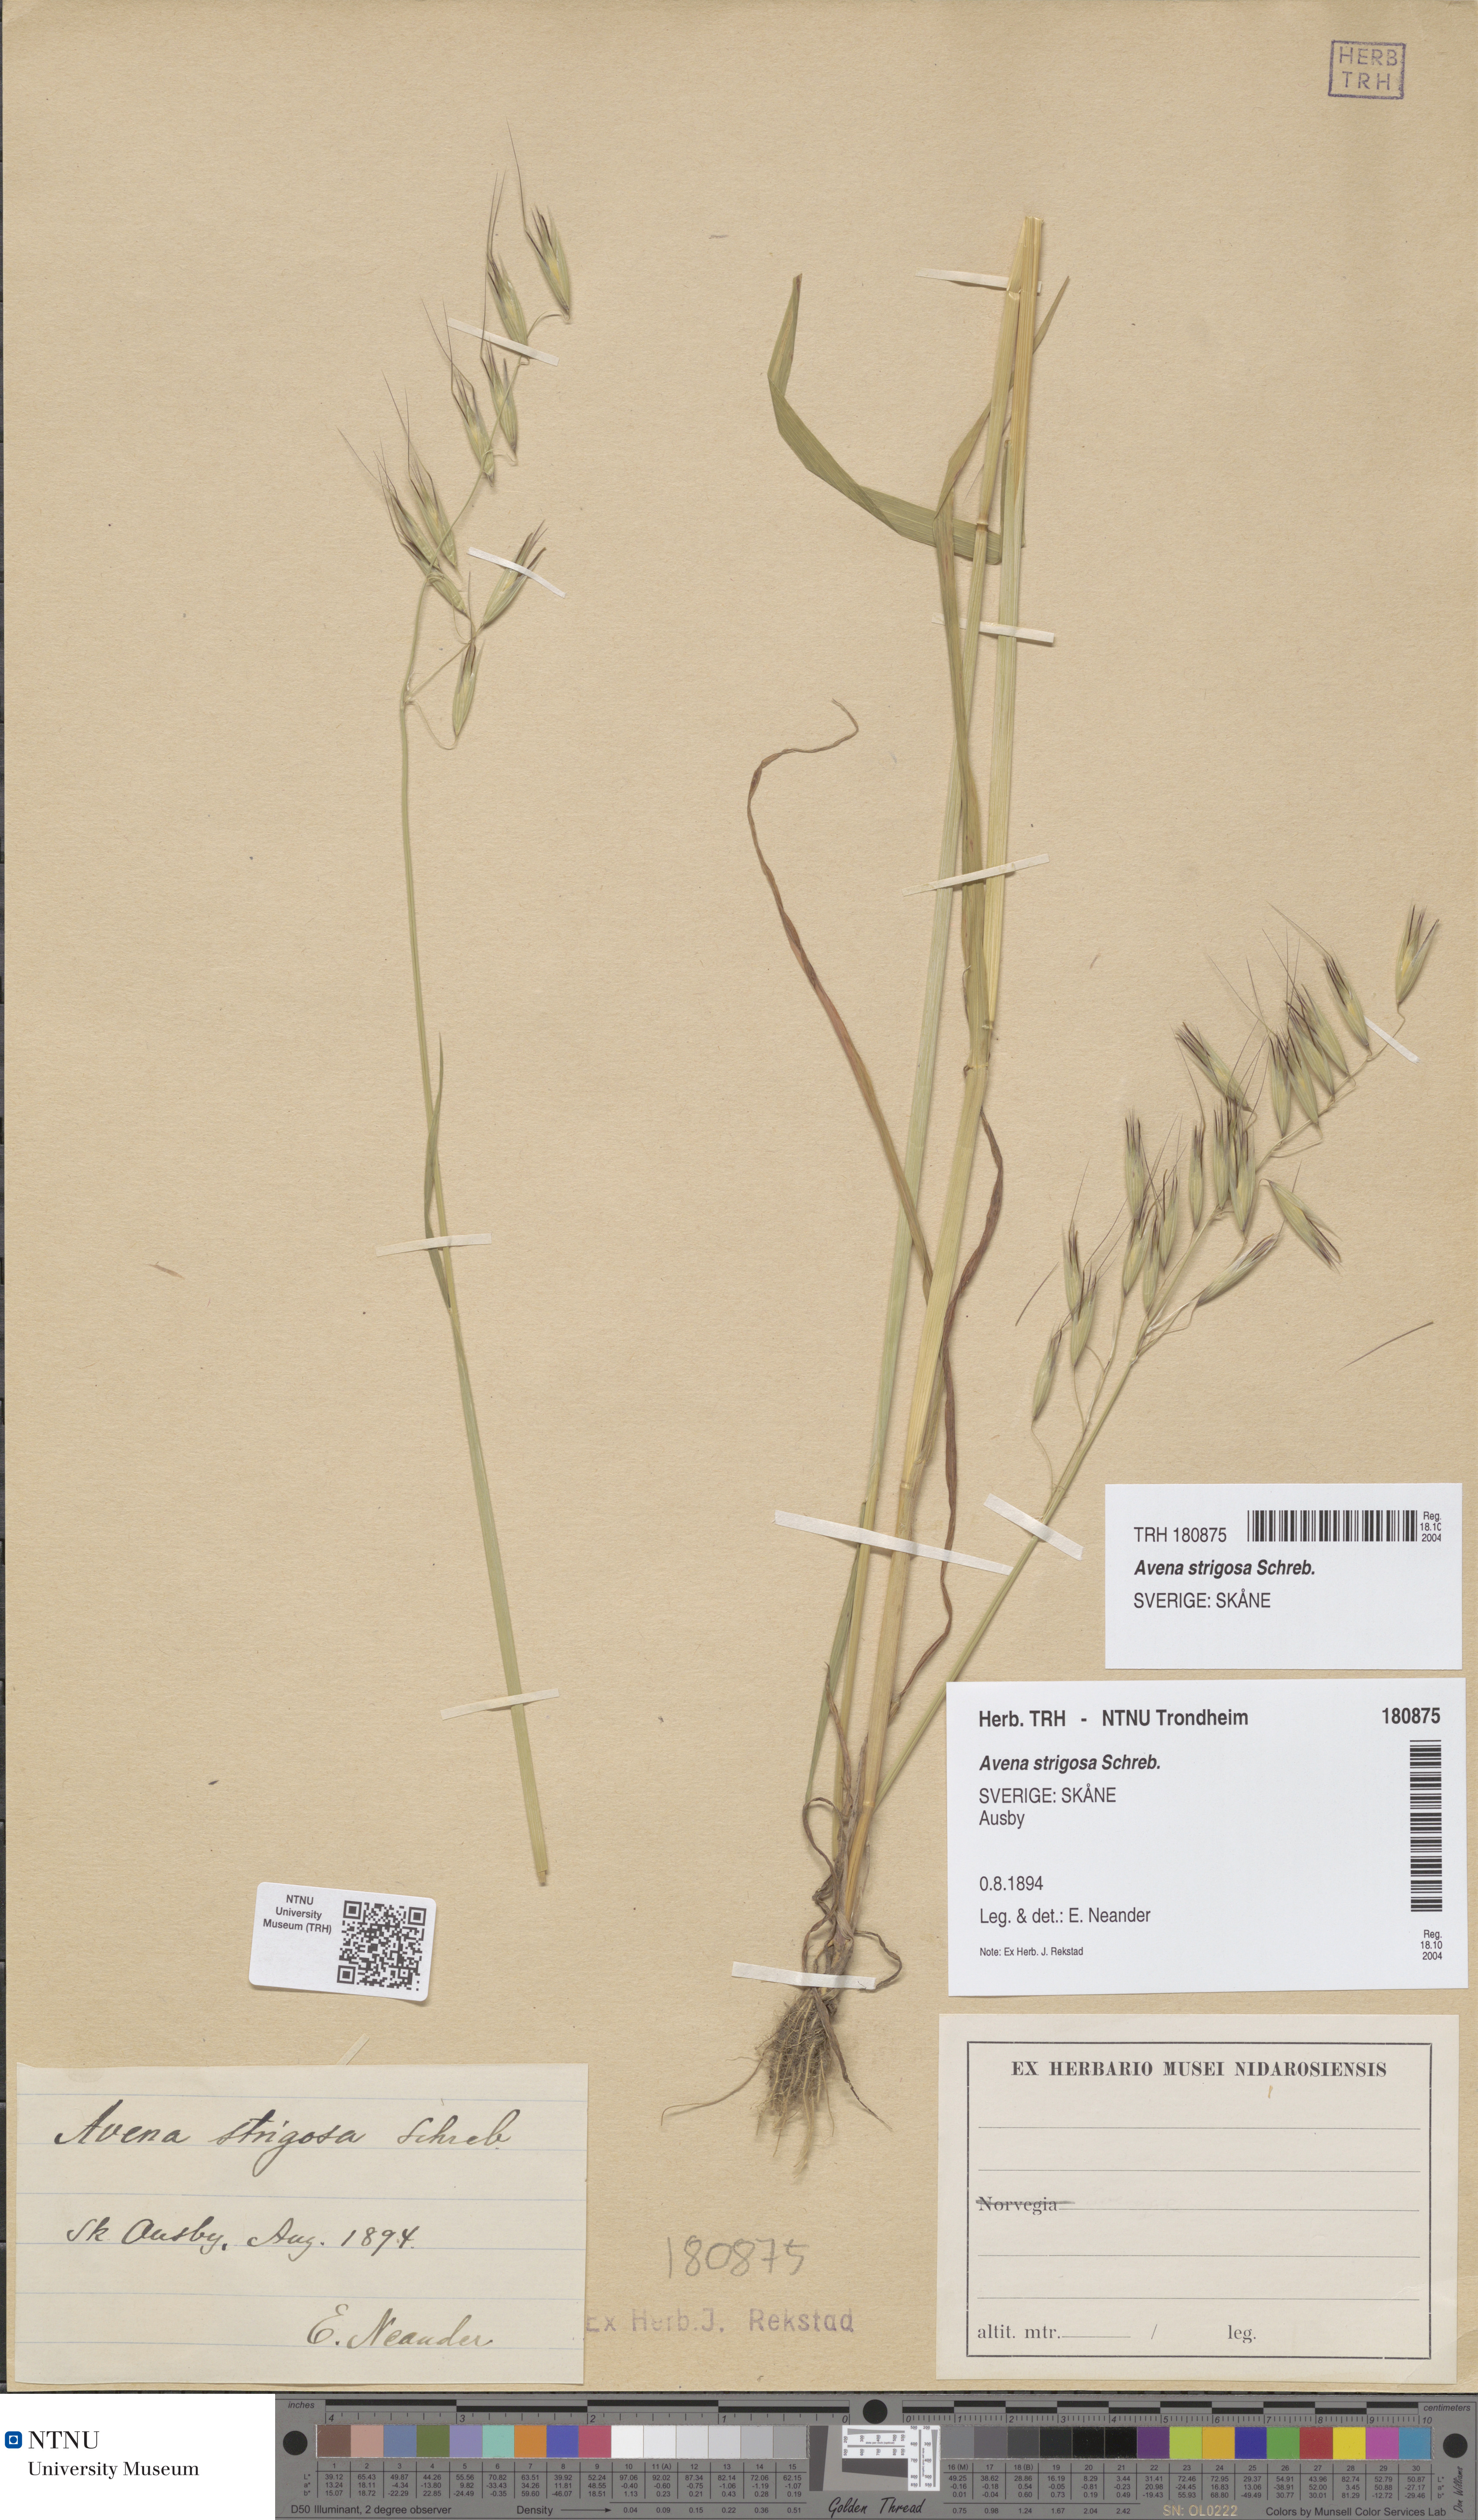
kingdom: Plantae
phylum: Tracheophyta
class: Liliopsida
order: Poales
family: Poaceae
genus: Avena
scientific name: Avena strigosa
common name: Bristle oat
